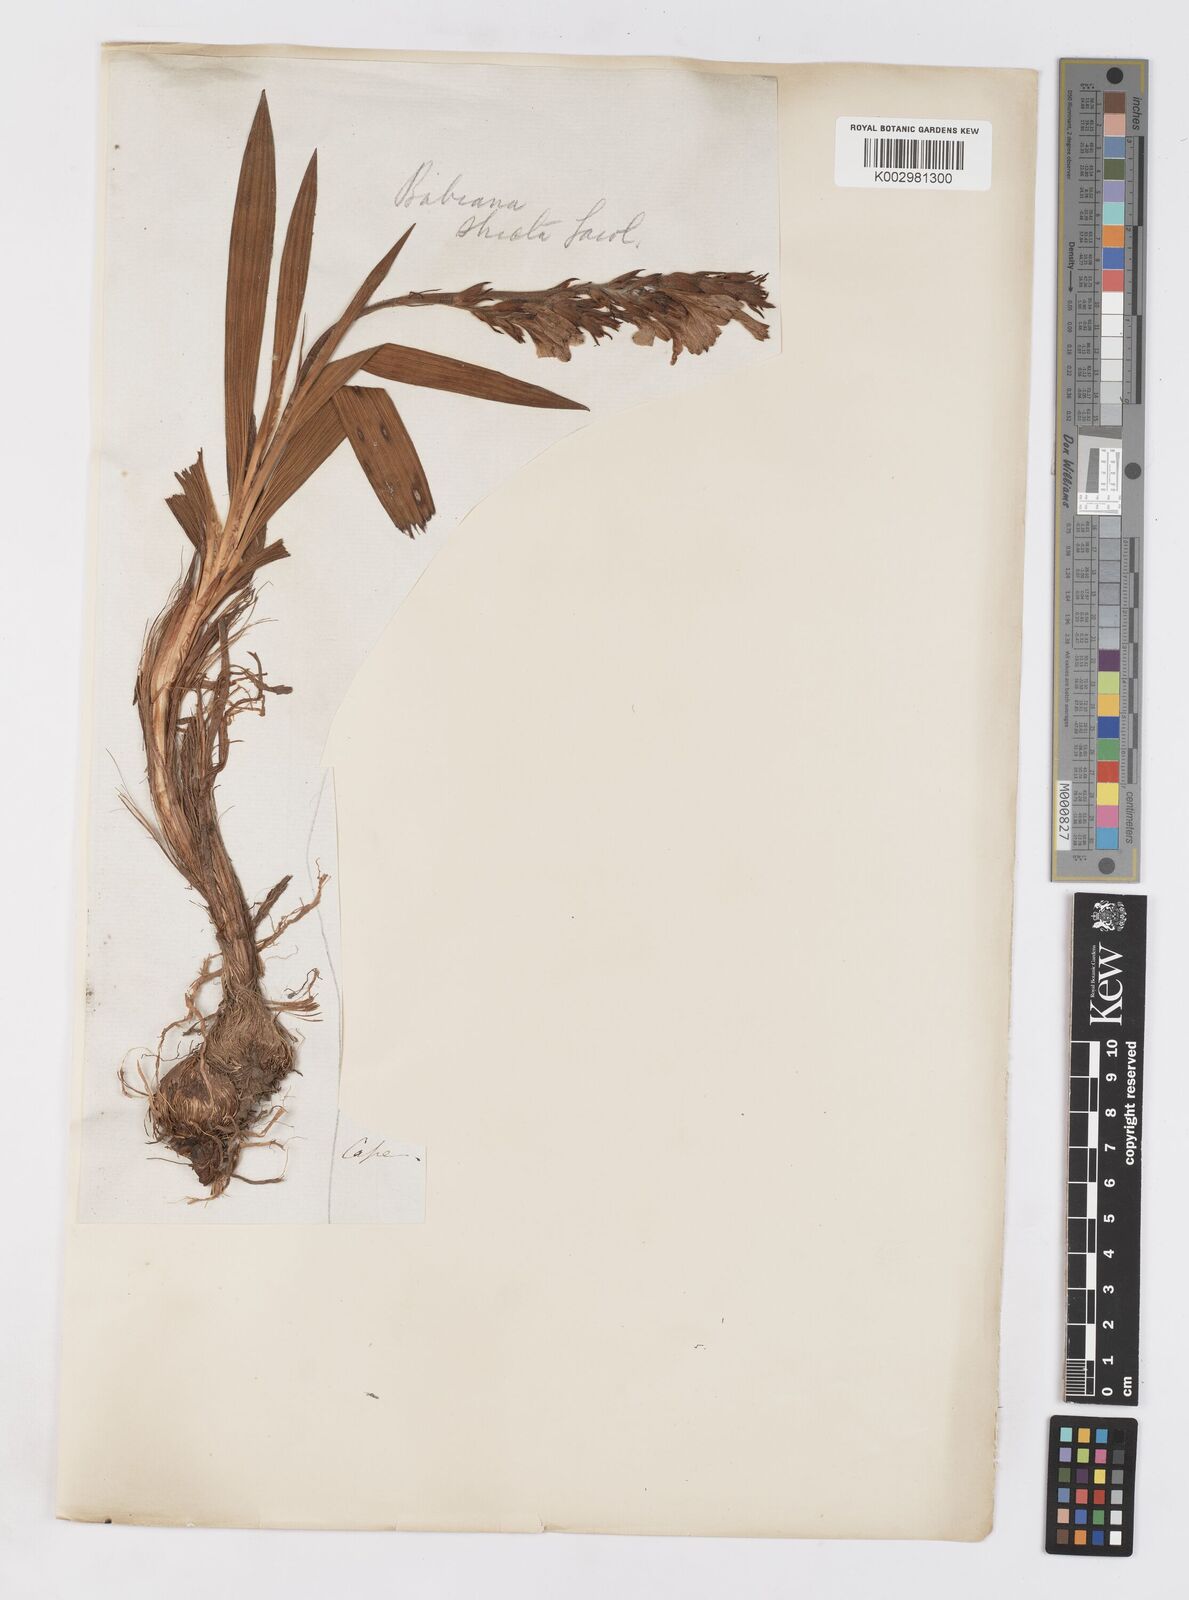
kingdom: Plantae
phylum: Tracheophyta
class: Liliopsida
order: Asparagales
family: Iridaceae
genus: Babiana
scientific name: Babiana nervosa
